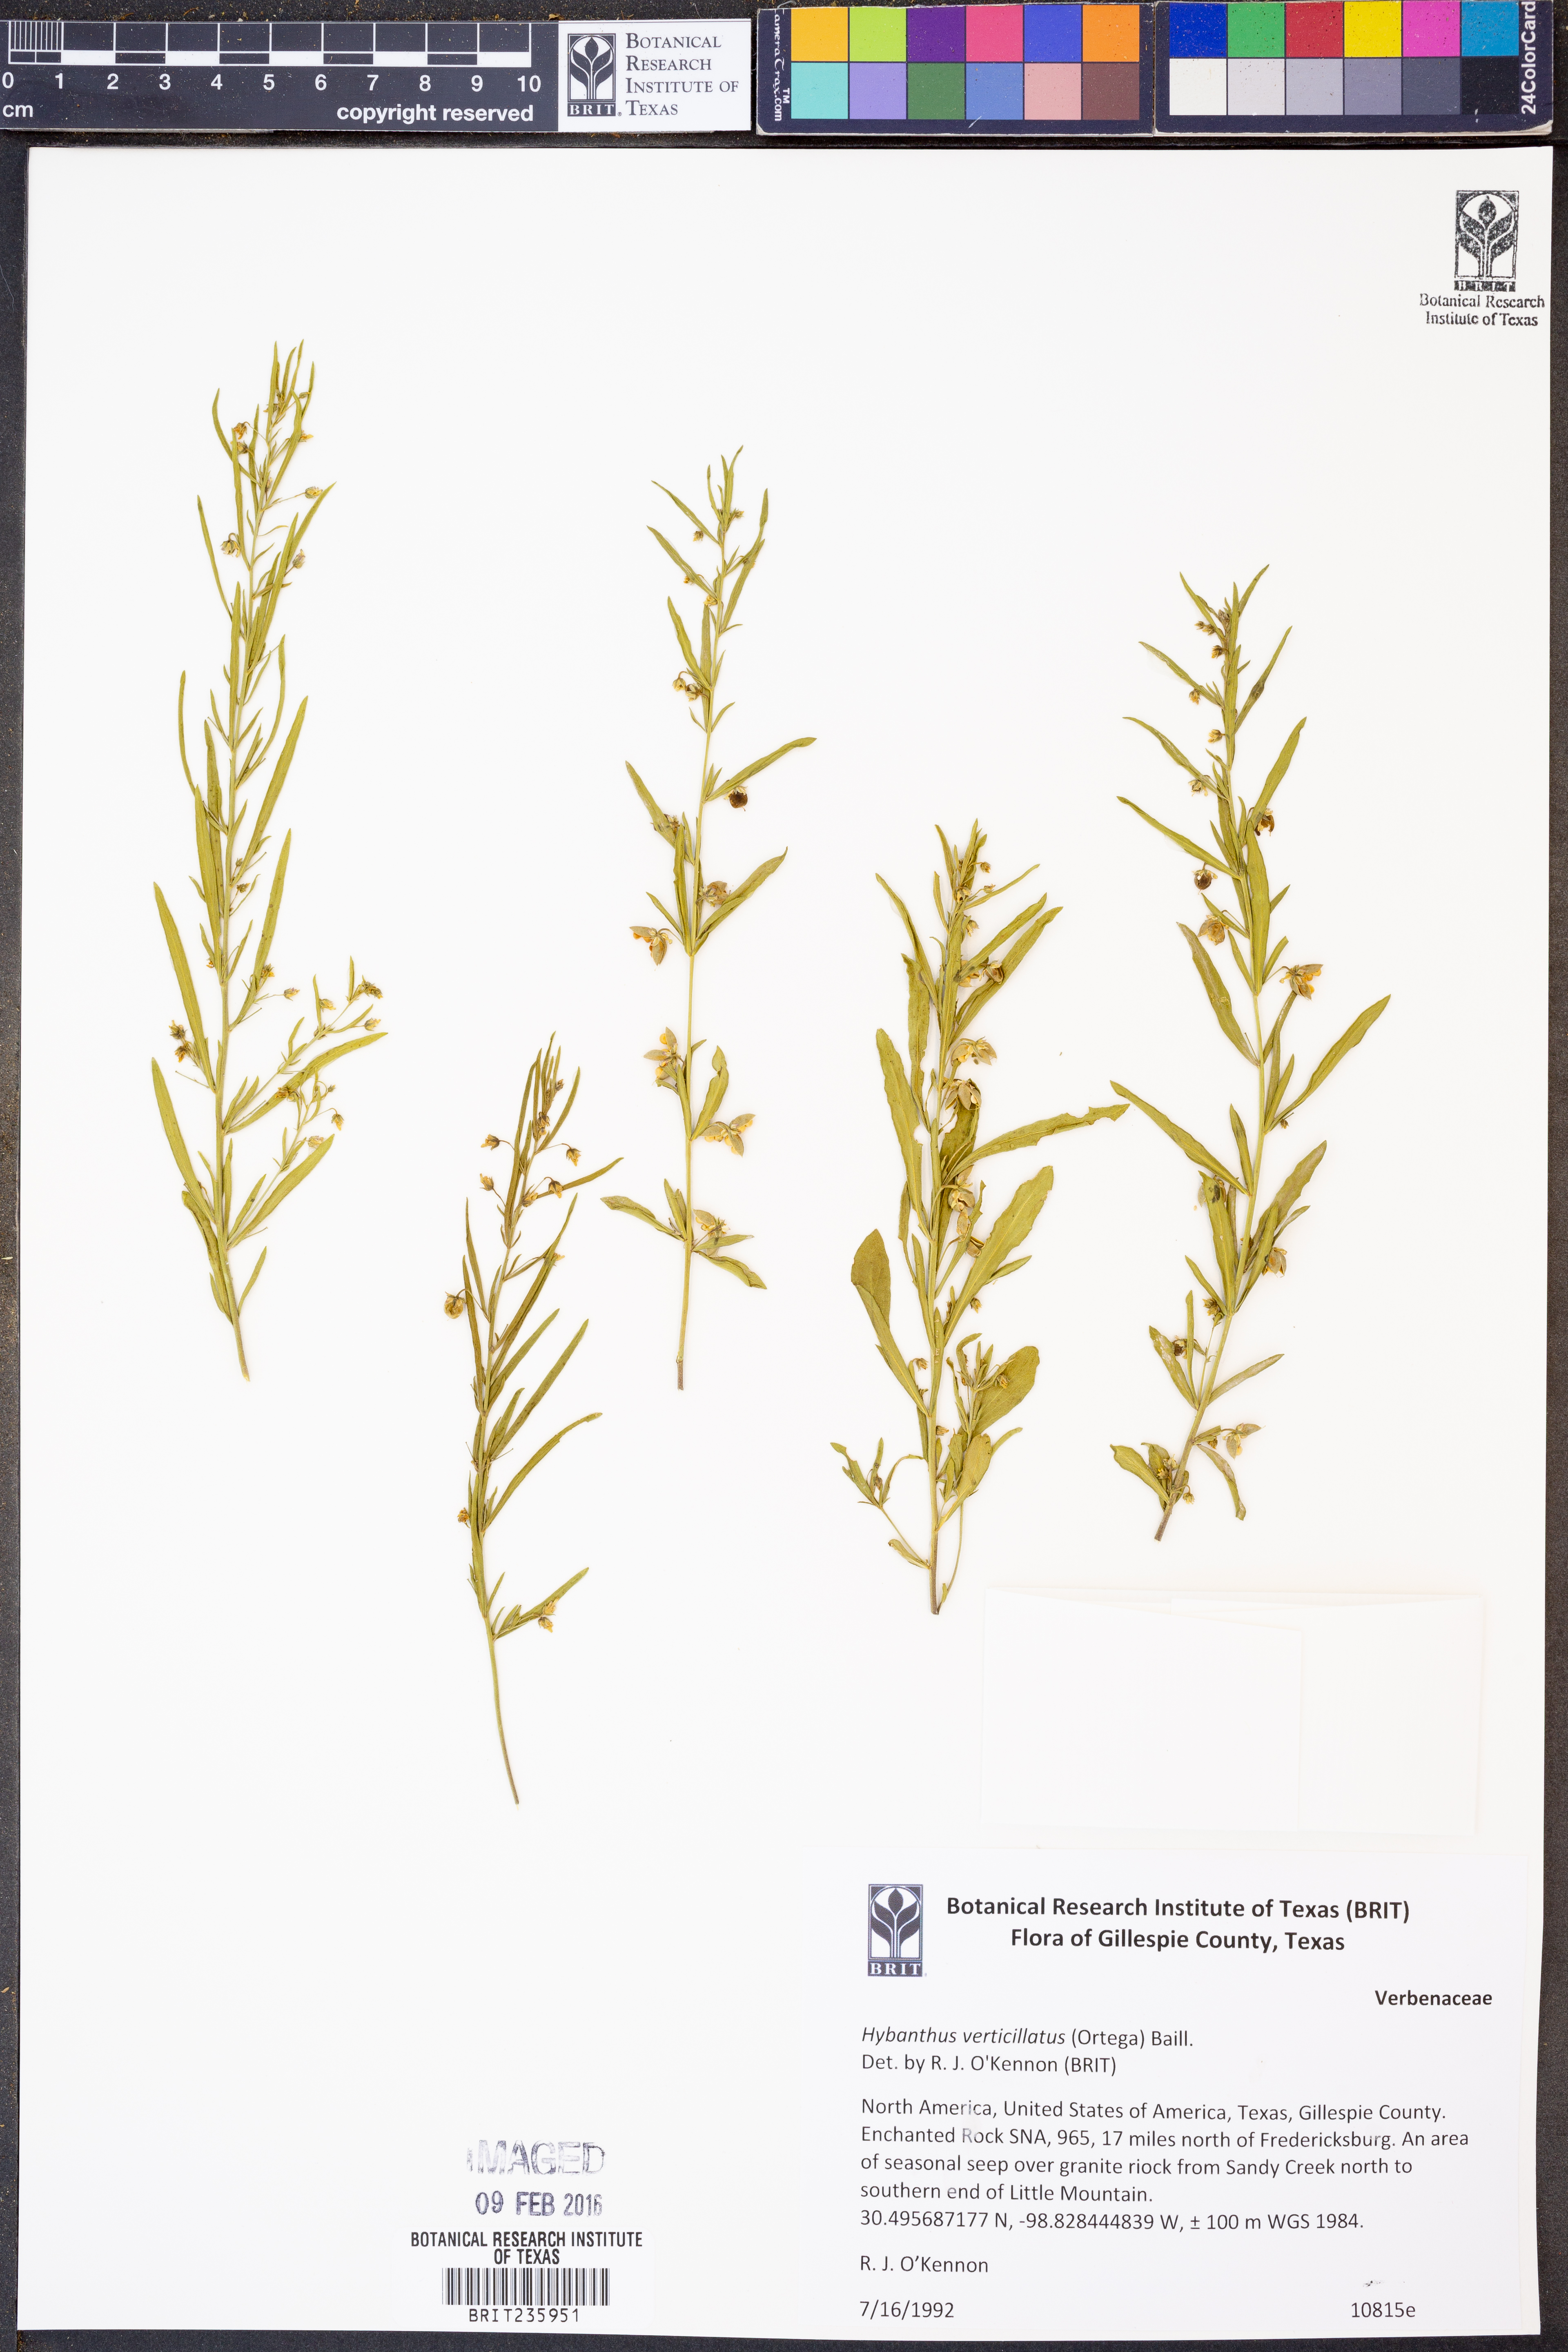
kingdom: Plantae
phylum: Tracheophyta
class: Magnoliopsida
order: Malpighiales
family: Violaceae
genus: Pombalia
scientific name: Pombalia verticillata
